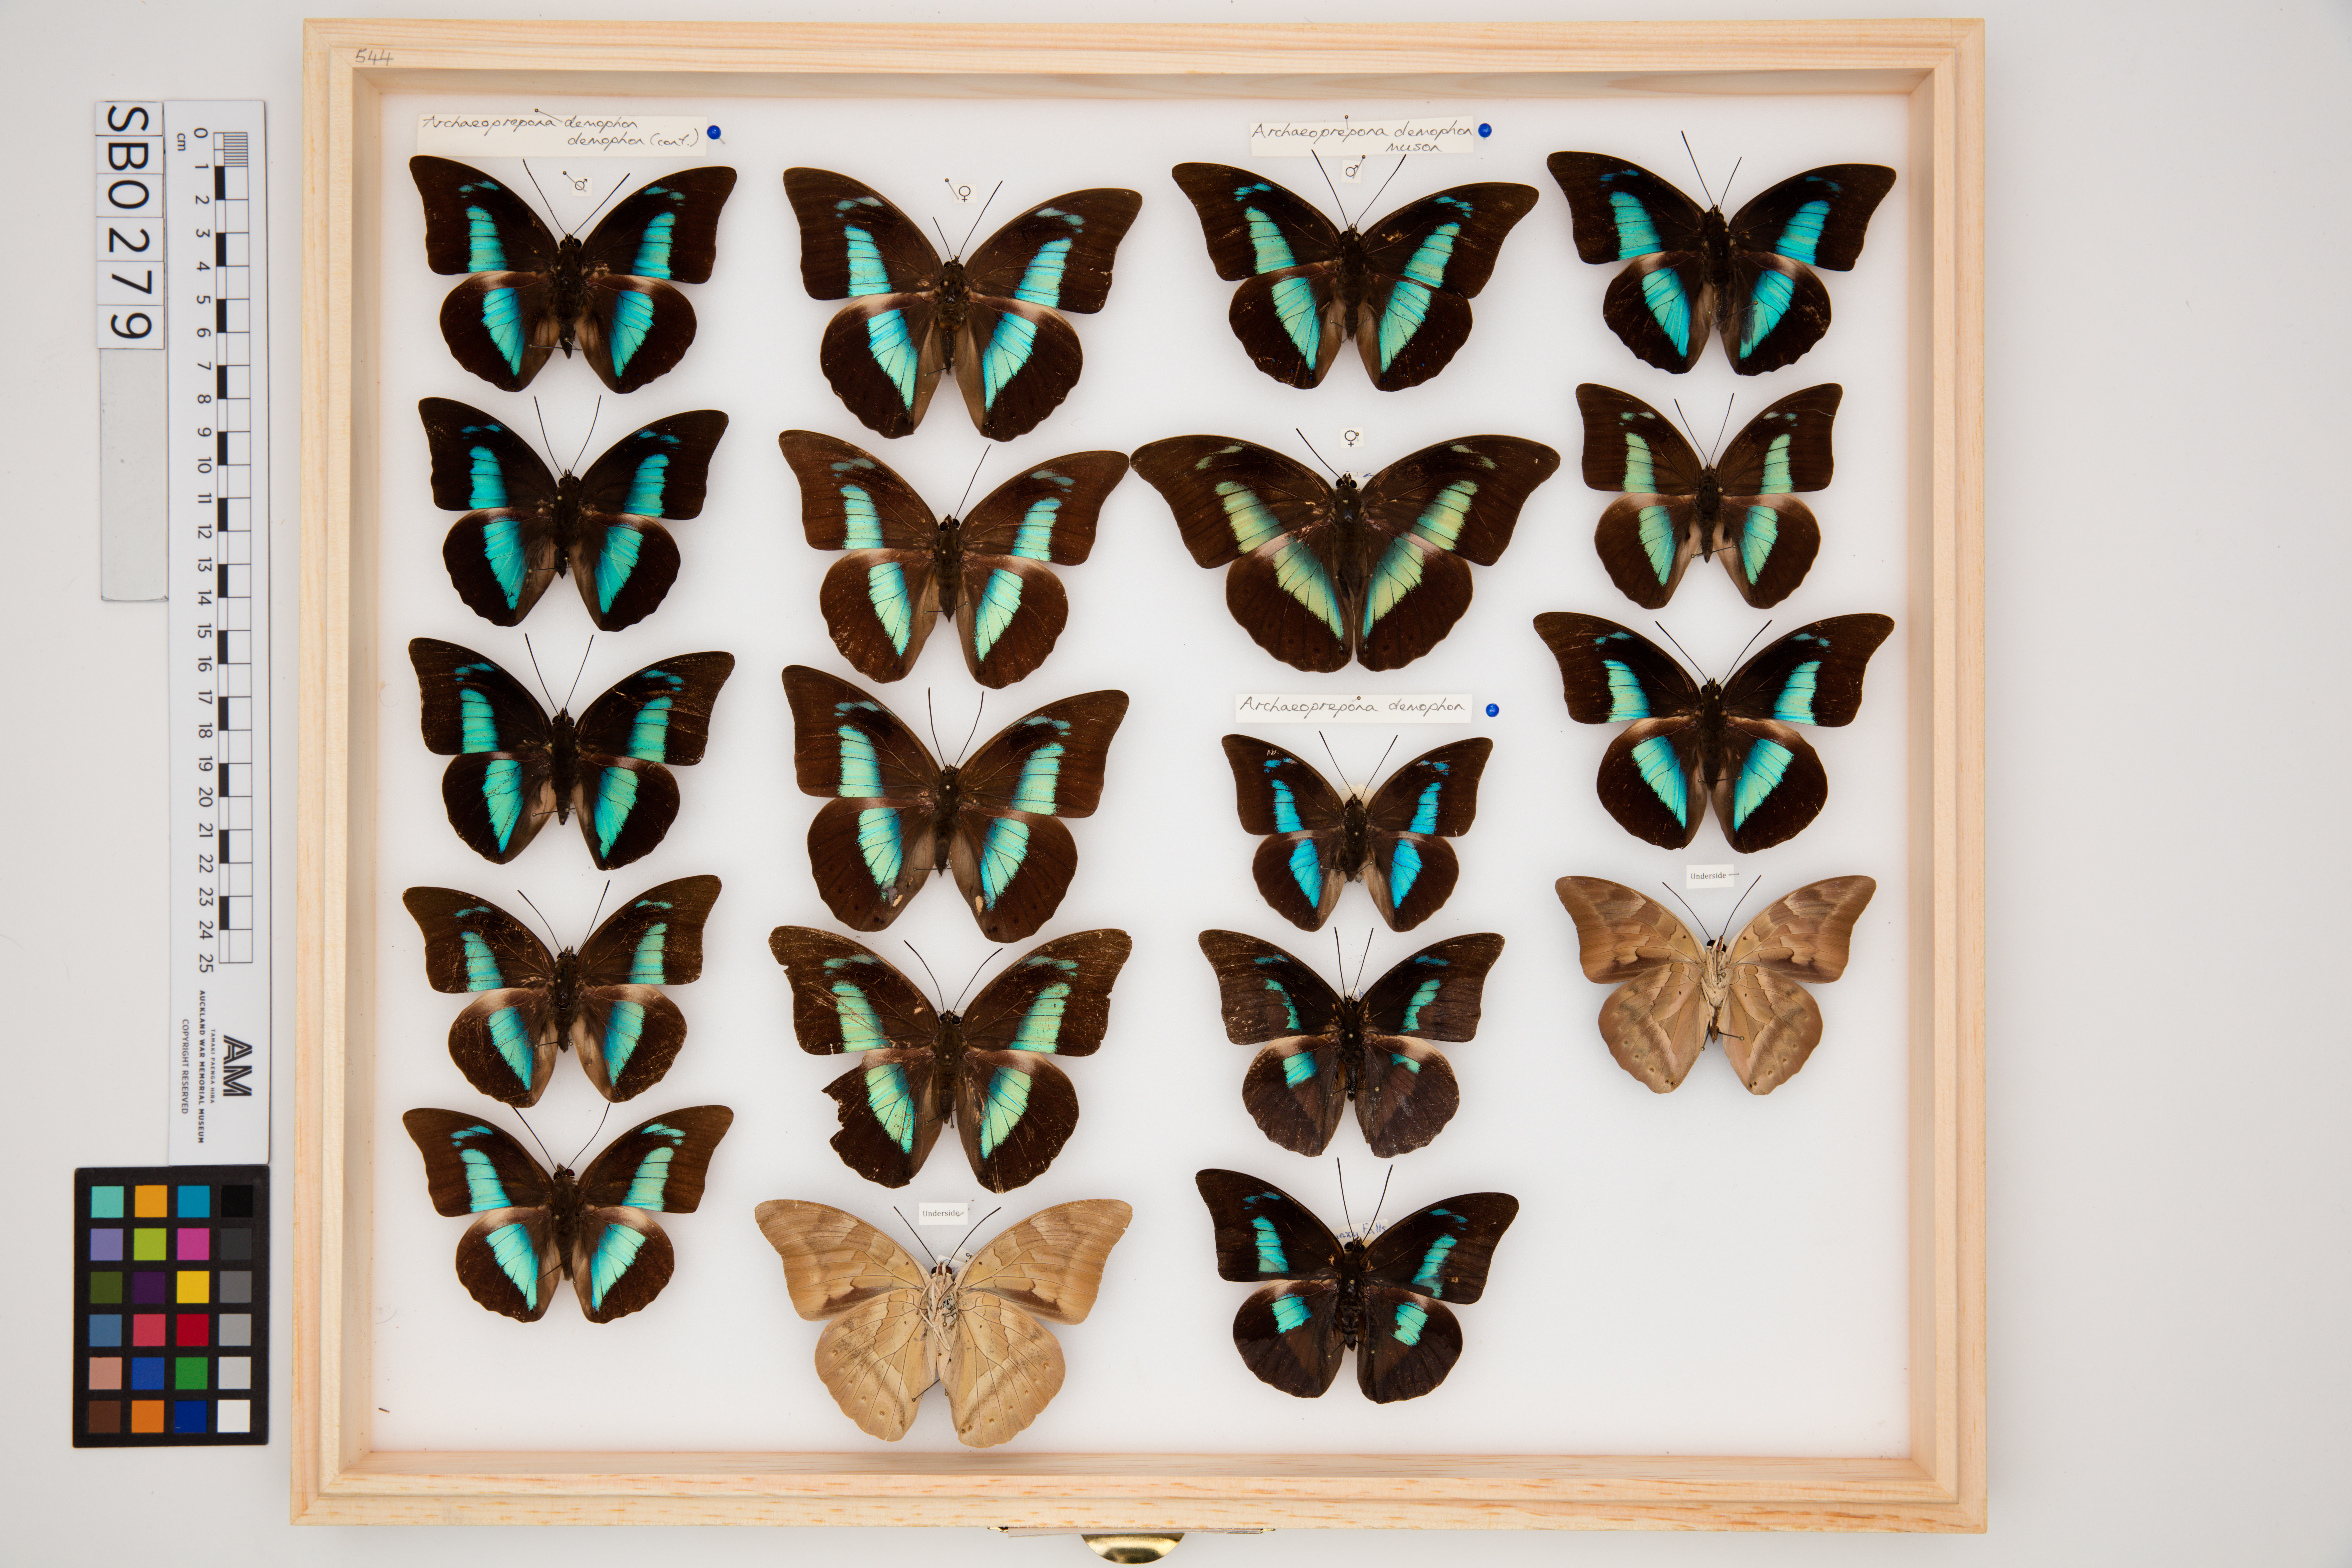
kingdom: Animalia
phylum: Arthropoda
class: Insecta
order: Lepidoptera
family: Nymphalidae
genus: Prepona
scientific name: Prepona demophon
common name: One-spotted prepona
